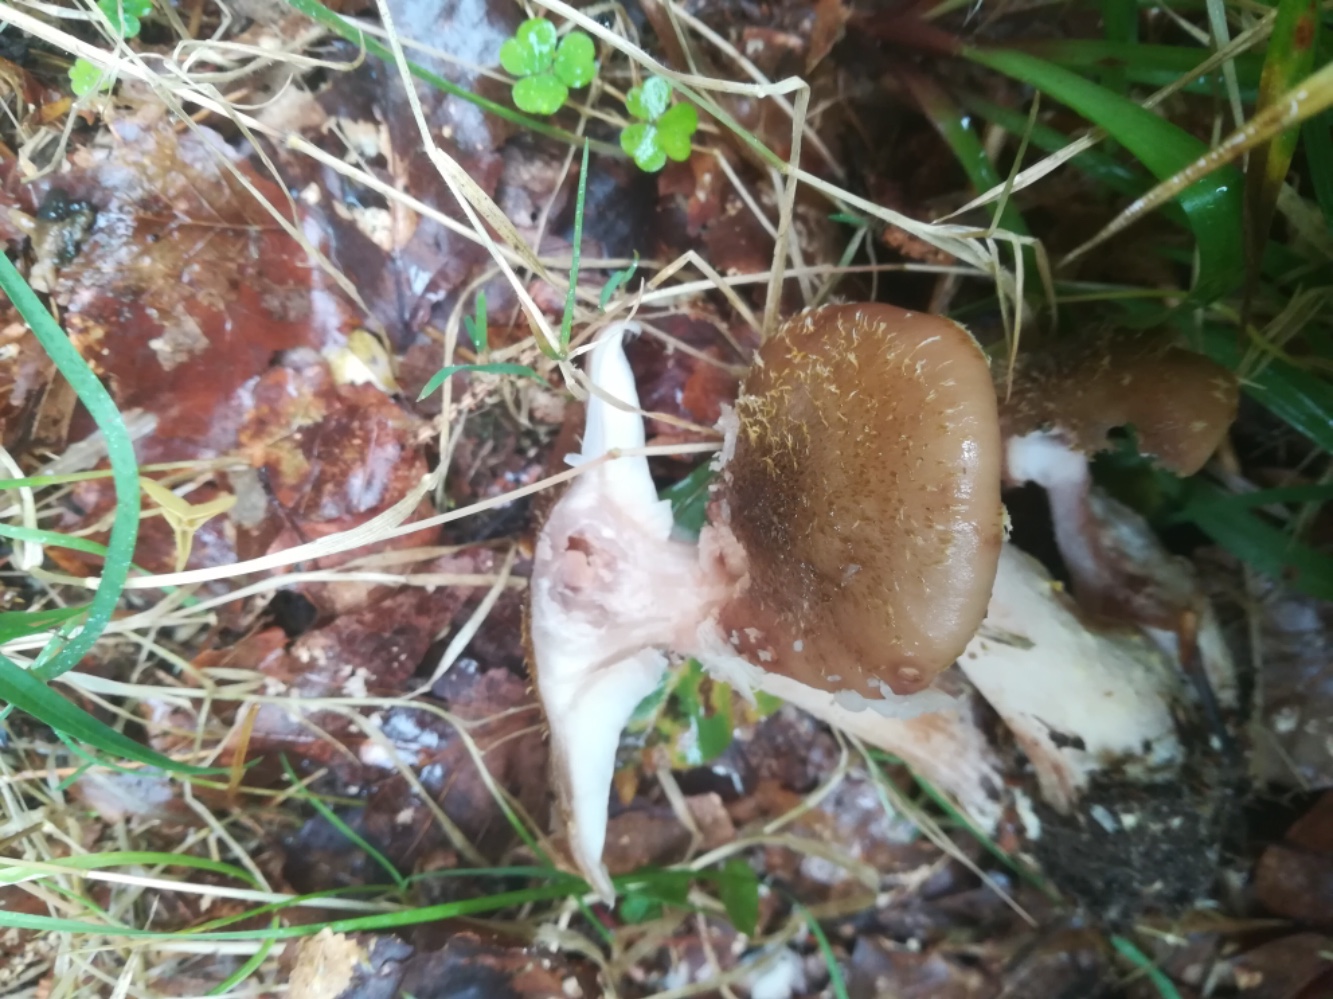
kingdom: Fungi
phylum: Basidiomycota
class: Agaricomycetes
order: Agaricales
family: Physalacriaceae
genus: Armillaria
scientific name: Armillaria lutea
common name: køllestokket honningsvamp
